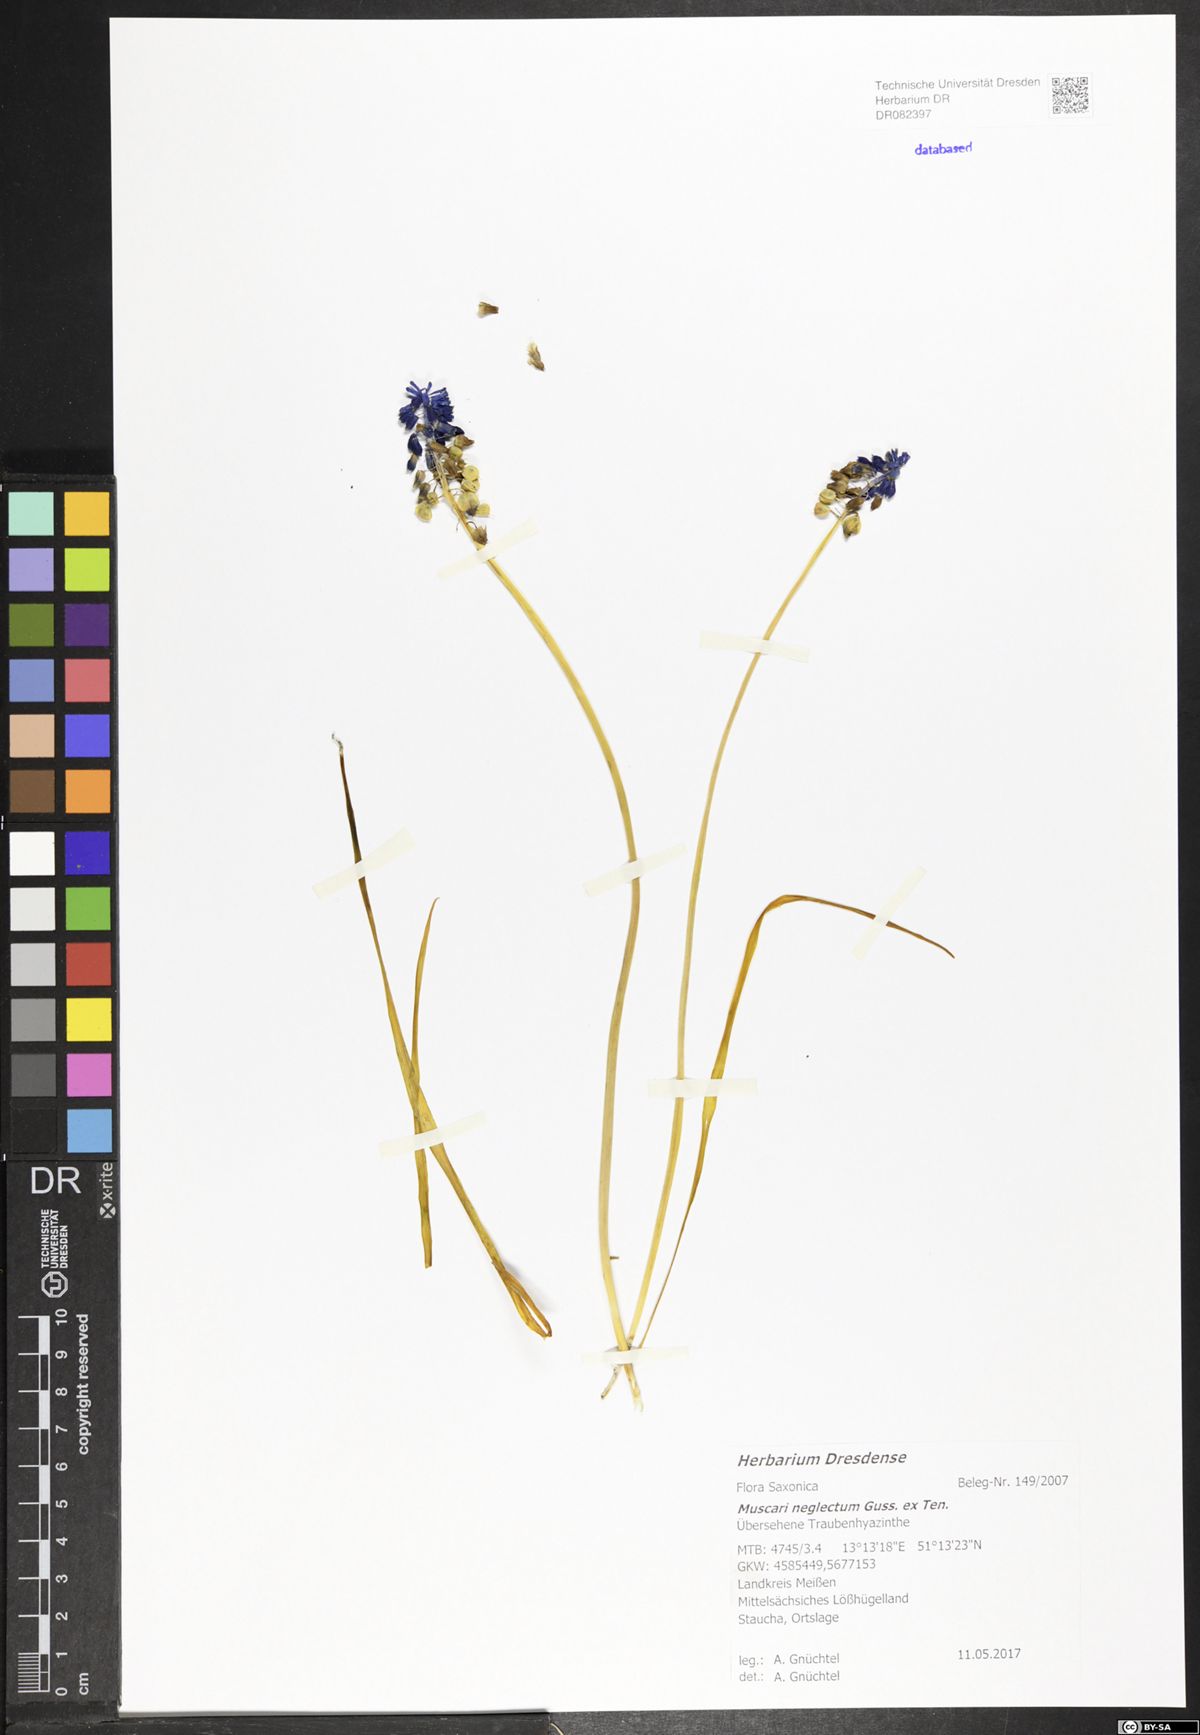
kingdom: Plantae
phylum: Tracheophyta
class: Liliopsida
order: Asparagales
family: Asparagaceae
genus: Muscari
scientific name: Muscari neglectum
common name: Grape-hyacinth
